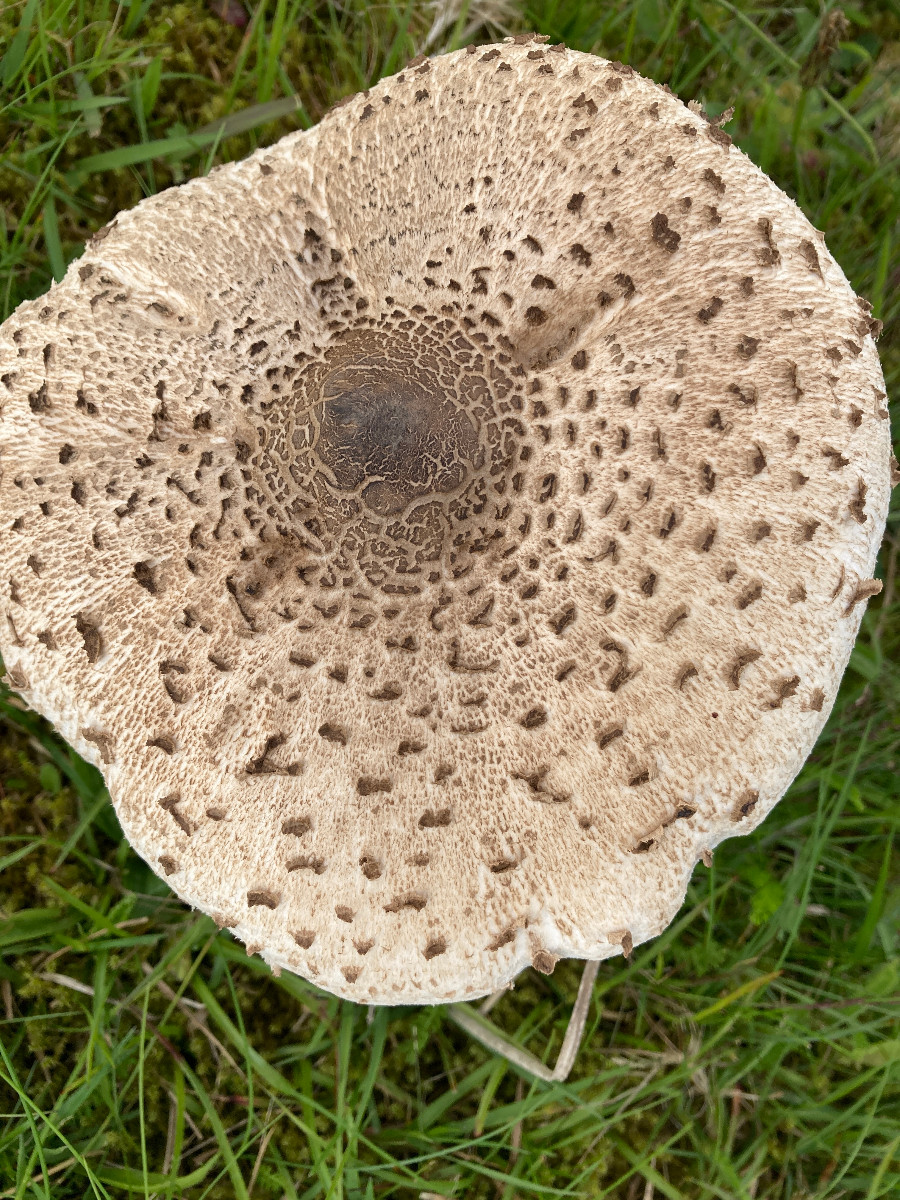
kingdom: Fungi
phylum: Basidiomycota
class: Agaricomycetes
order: Agaricales
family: Agaricaceae
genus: Macrolepiota
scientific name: Macrolepiota procera
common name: stor kæmpeparasolhat
